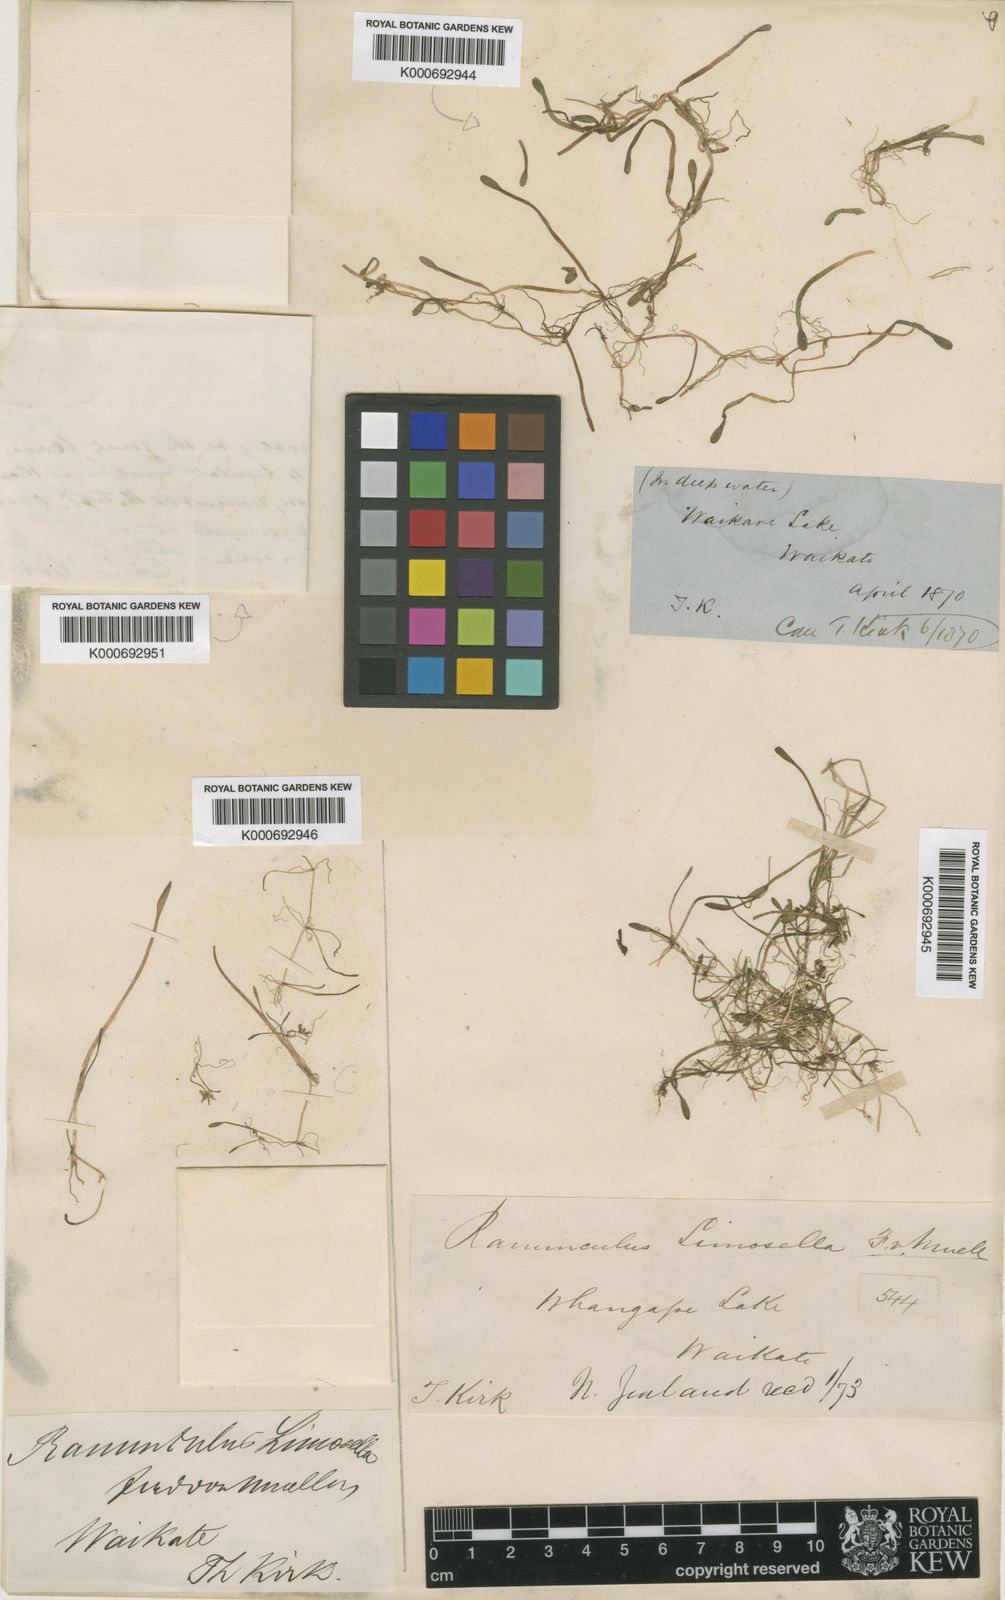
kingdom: Plantae
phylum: Tracheophyta
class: Magnoliopsida
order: Ranunculales
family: Ranunculaceae
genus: Ranunculus
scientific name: Ranunculus limosella
